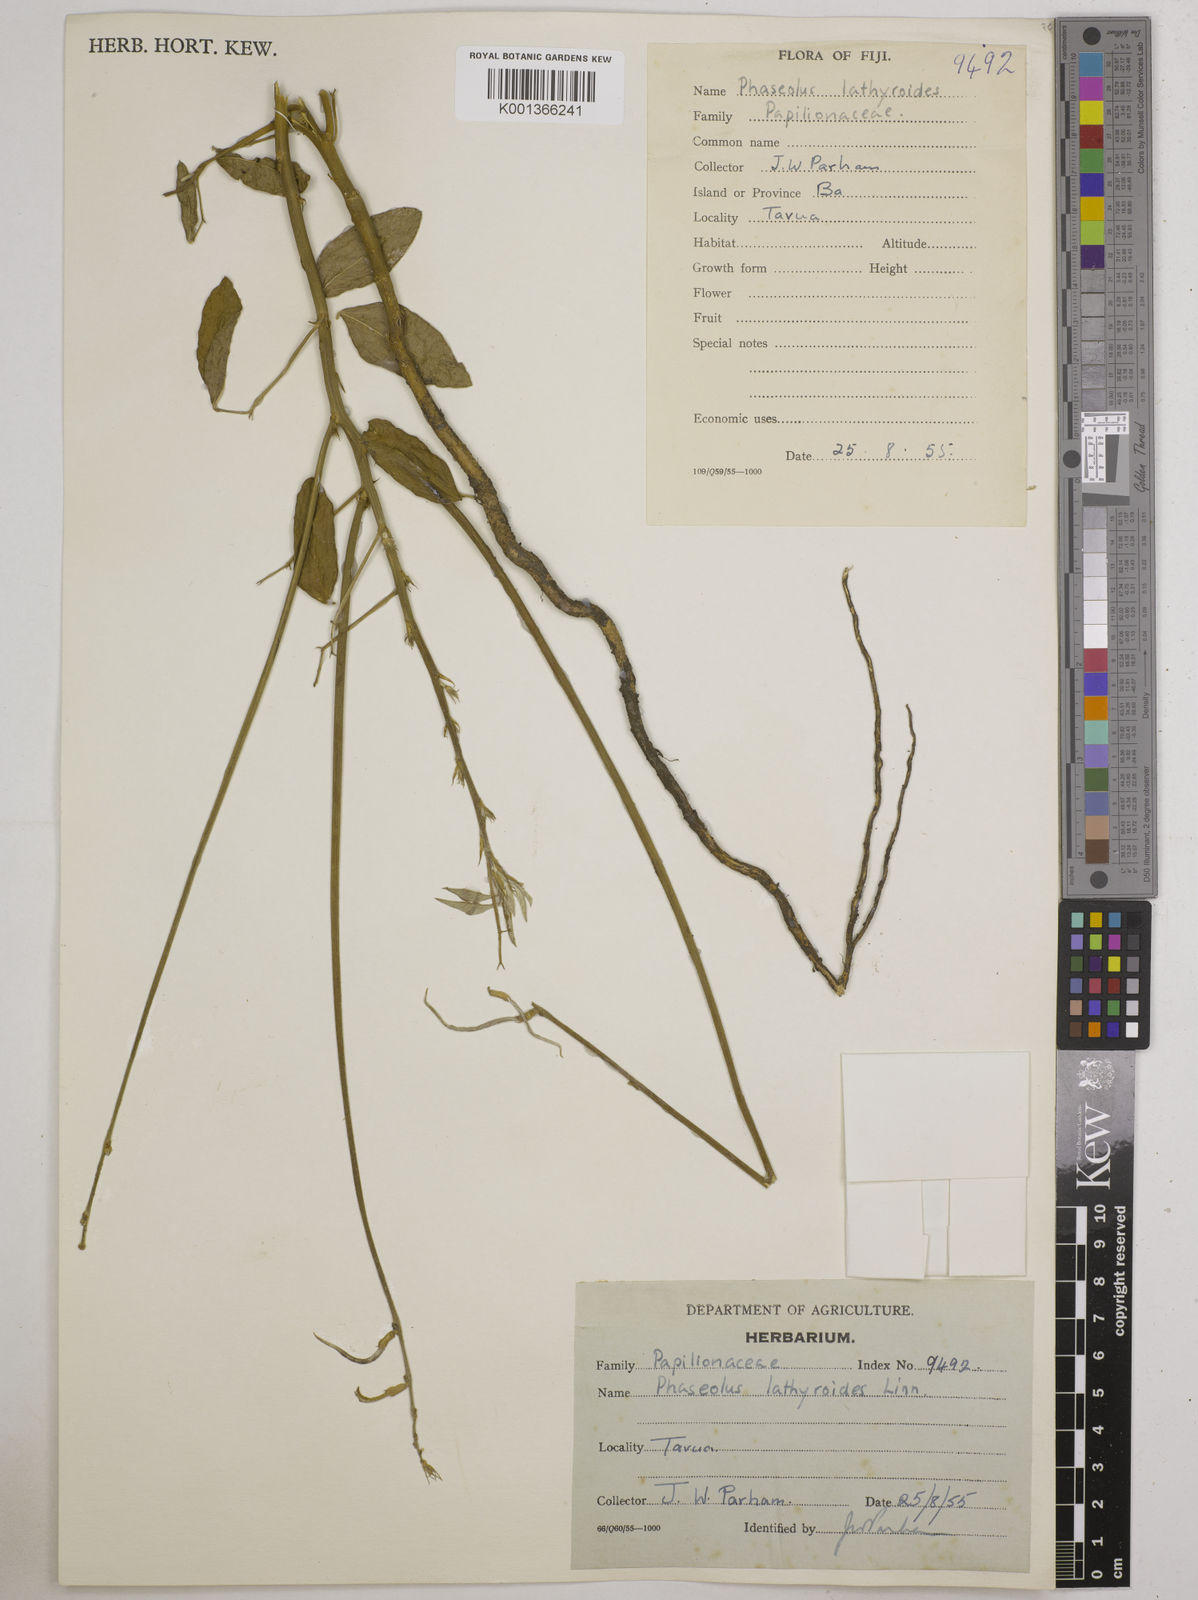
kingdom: Plantae
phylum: Tracheophyta
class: Magnoliopsida
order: Fabales
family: Fabaceae
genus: Macroptilium
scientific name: Macroptilium lathyroides
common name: Wild bushbean
